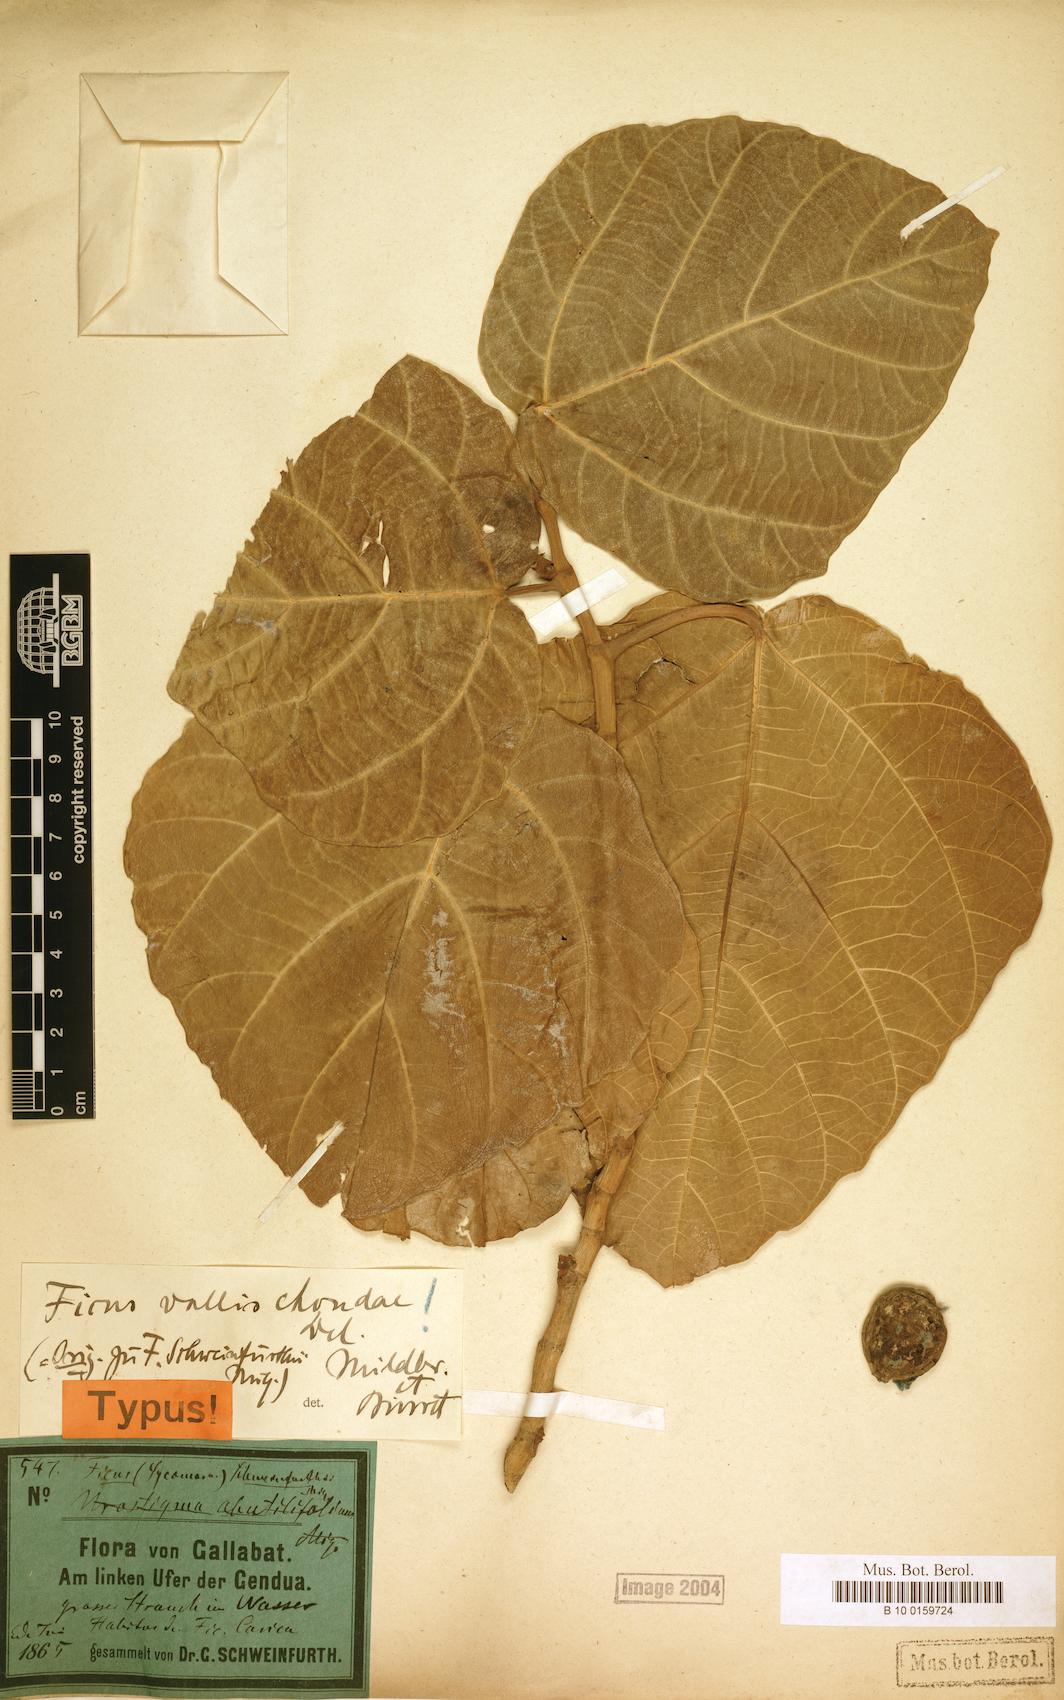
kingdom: Plantae
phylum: Tracheophyta
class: Magnoliopsida
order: Rosales
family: Moraceae
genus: Ficus
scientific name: Ficus vallis-choudae
